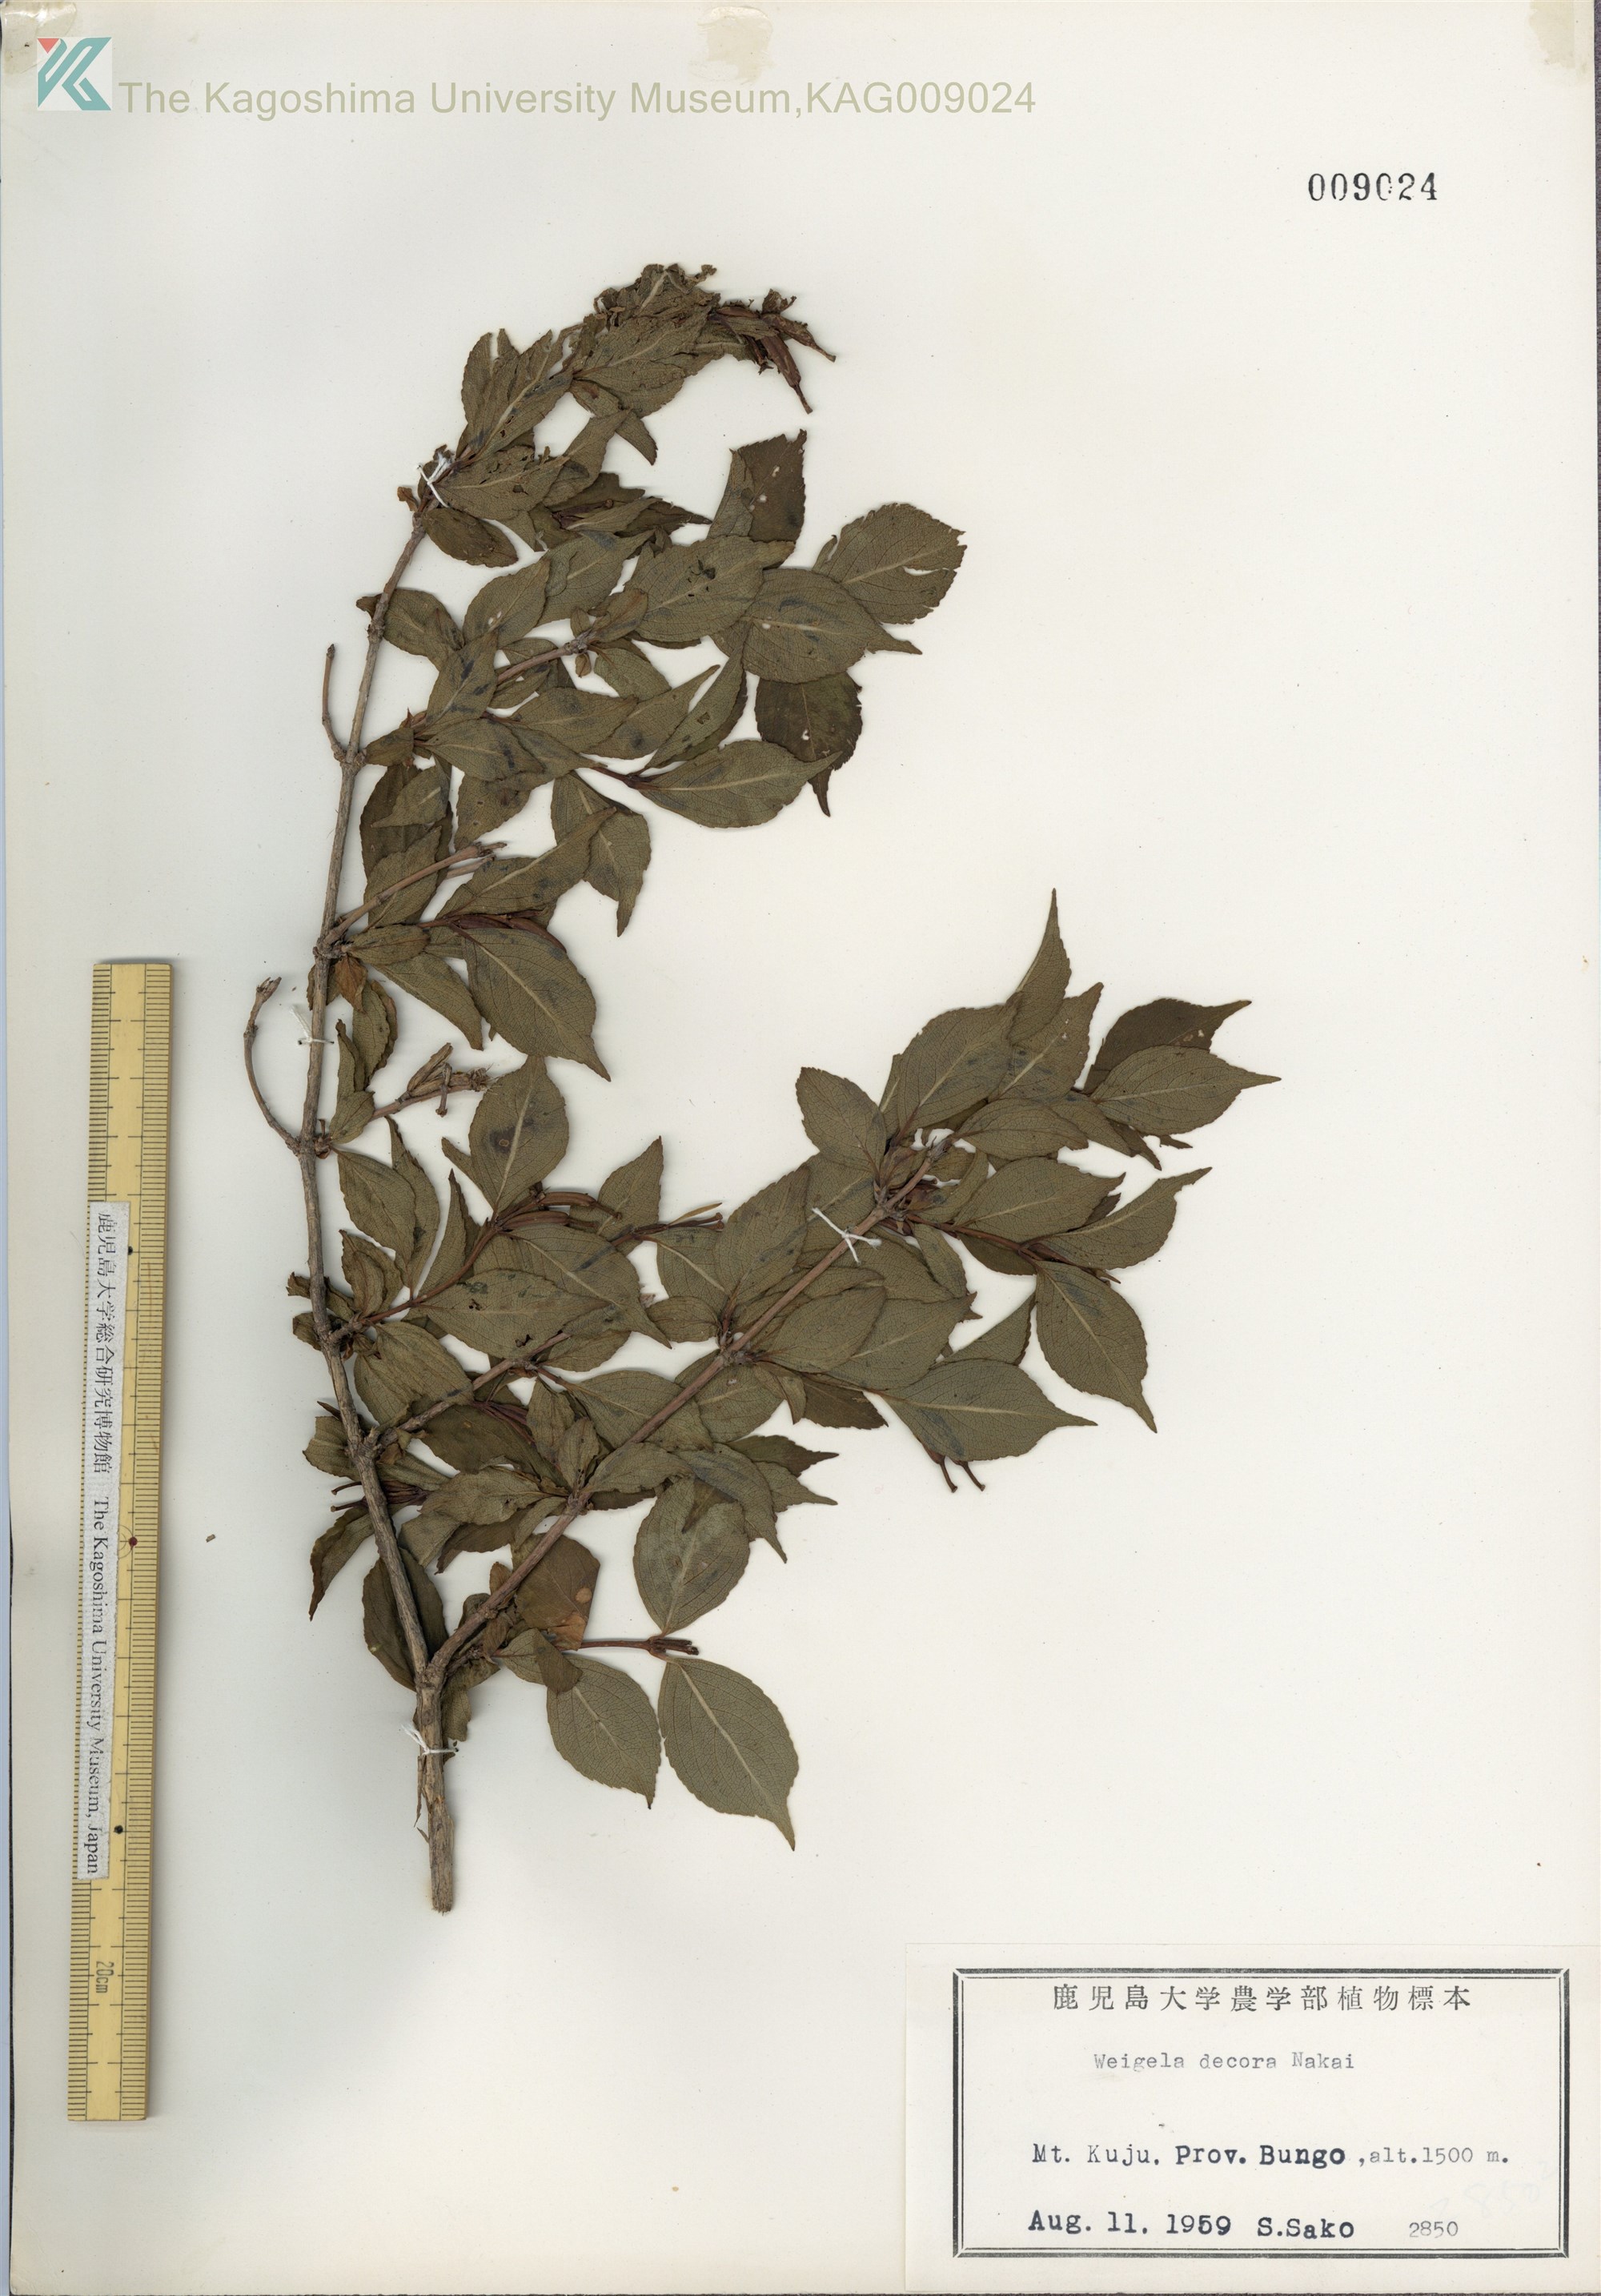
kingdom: Plantae
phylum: Tracheophyta
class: Magnoliopsida
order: Dipsacales
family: Caprifoliaceae
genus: Weigela
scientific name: Weigela decora
